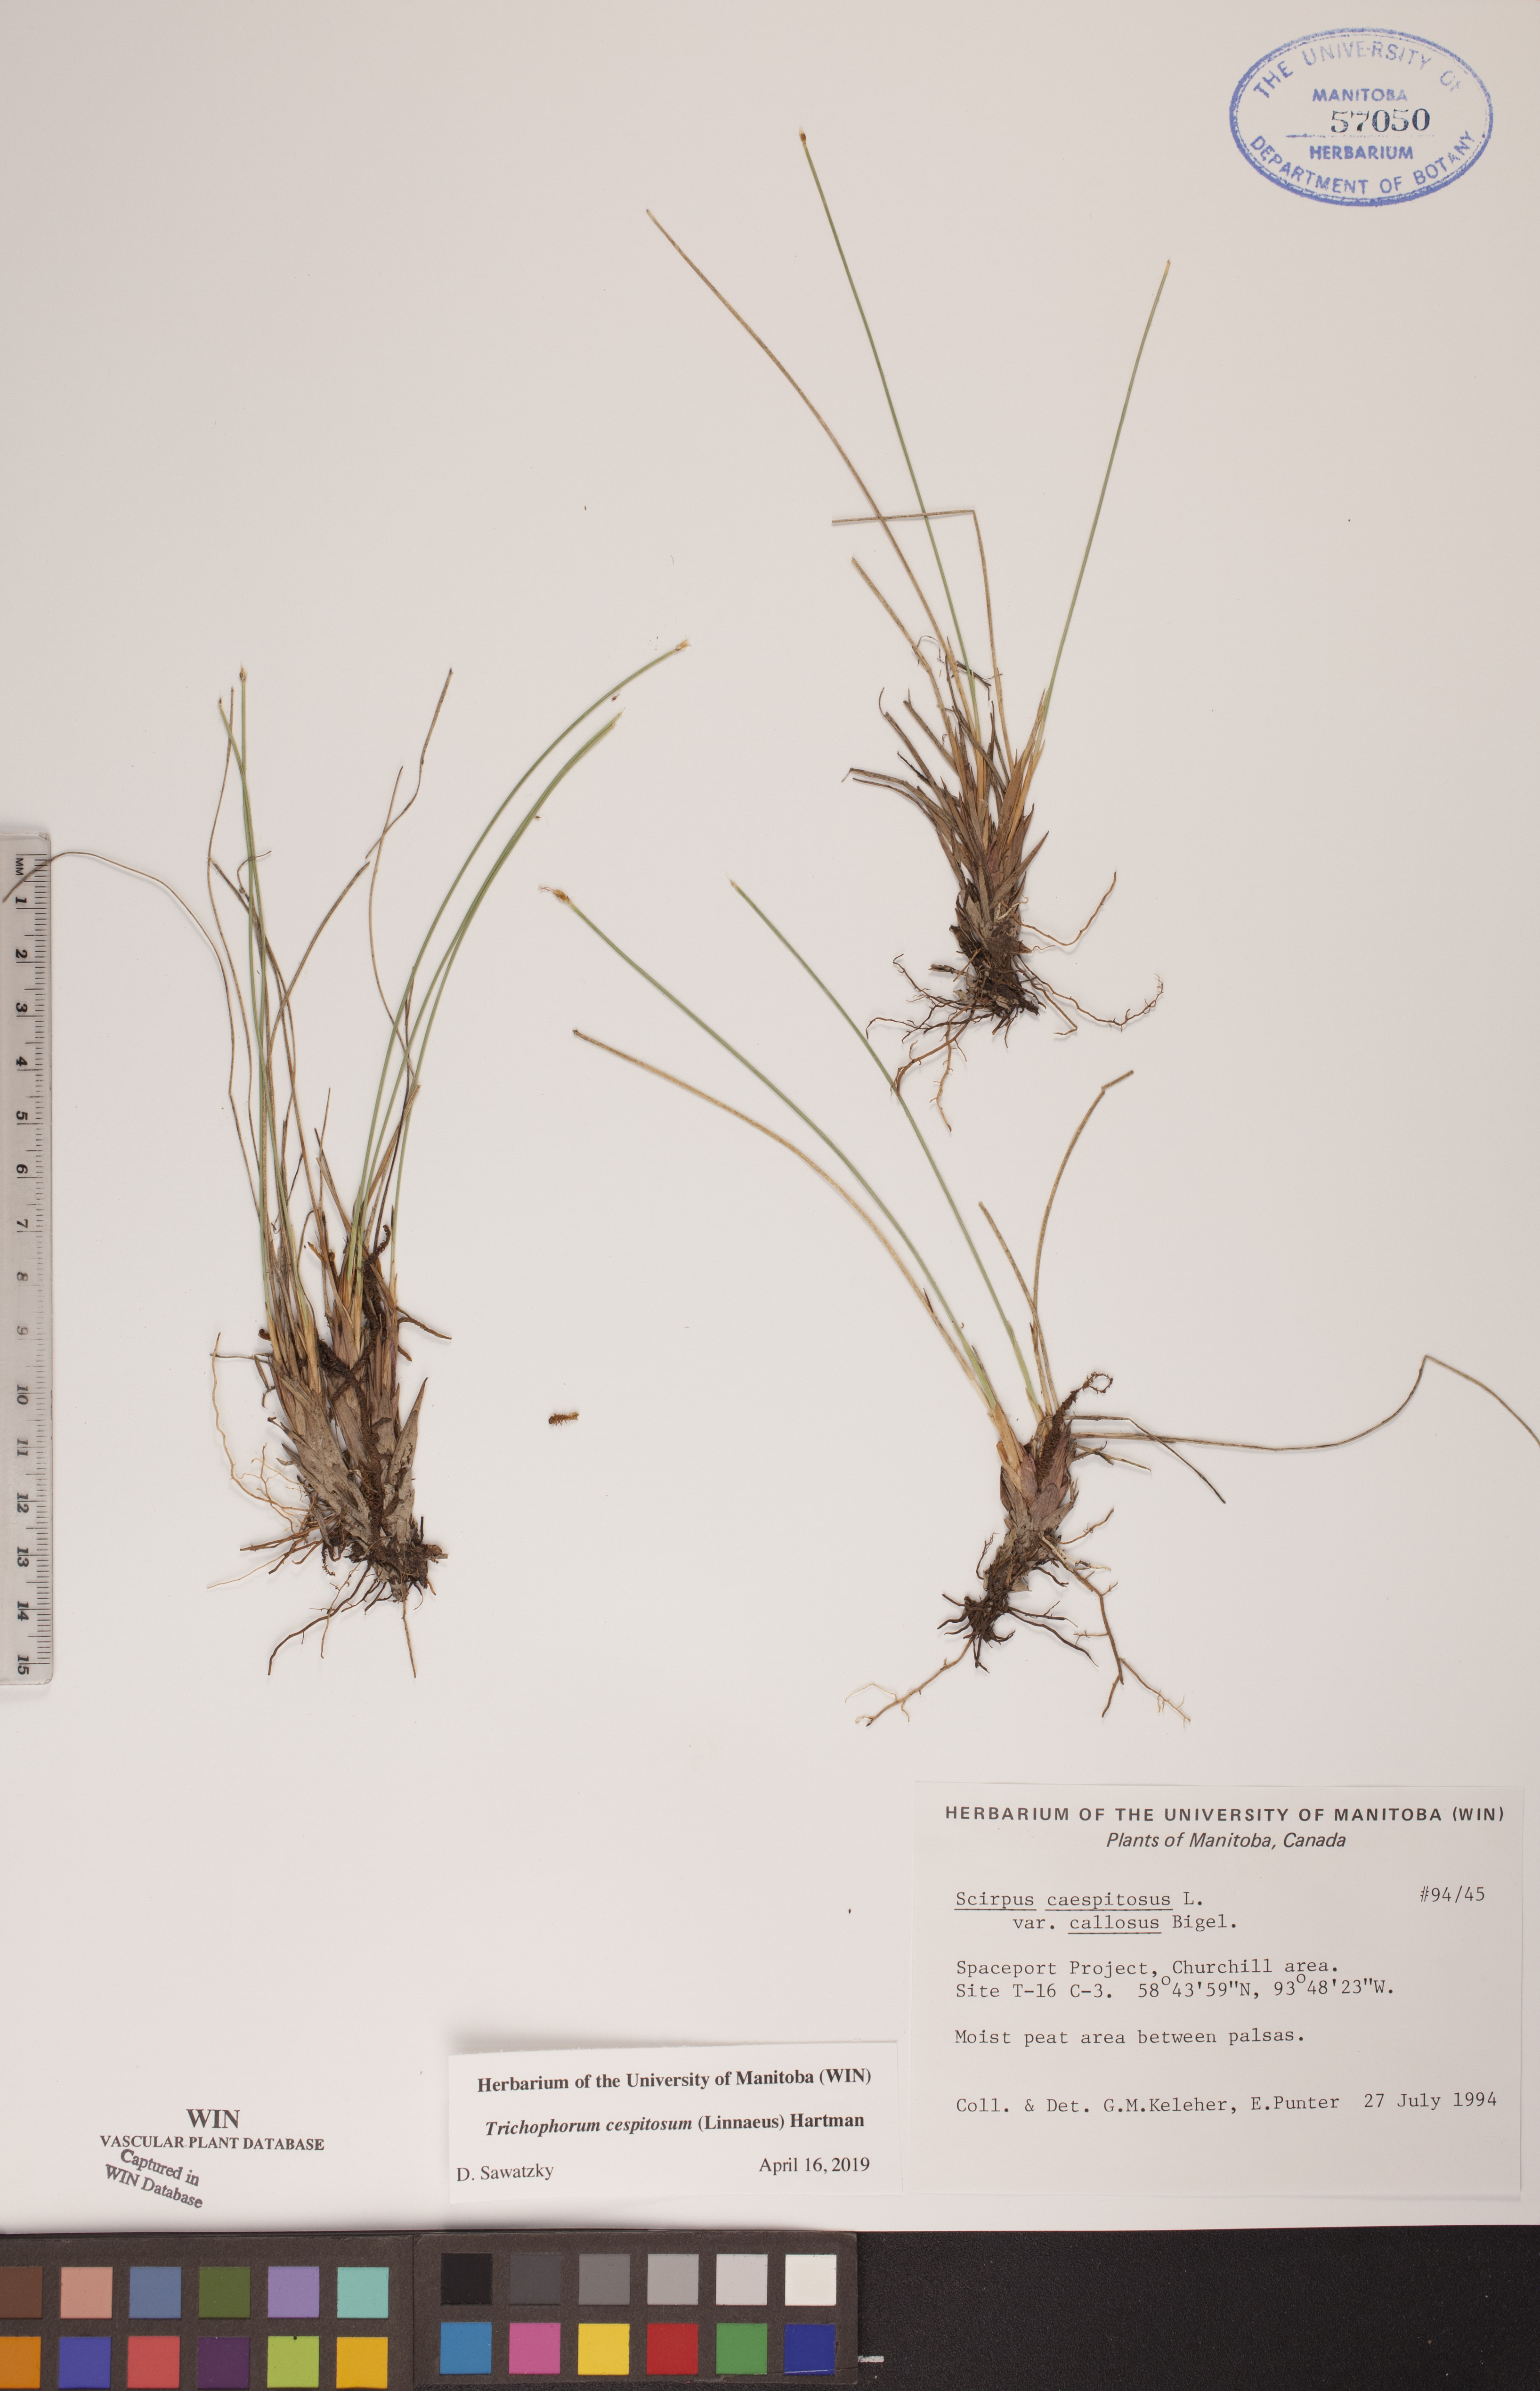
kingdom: Plantae
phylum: Tracheophyta
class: Liliopsida
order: Poales
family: Cyperaceae
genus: Trichophorum
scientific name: Trichophorum cespitosum
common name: Cespitose bulrush
